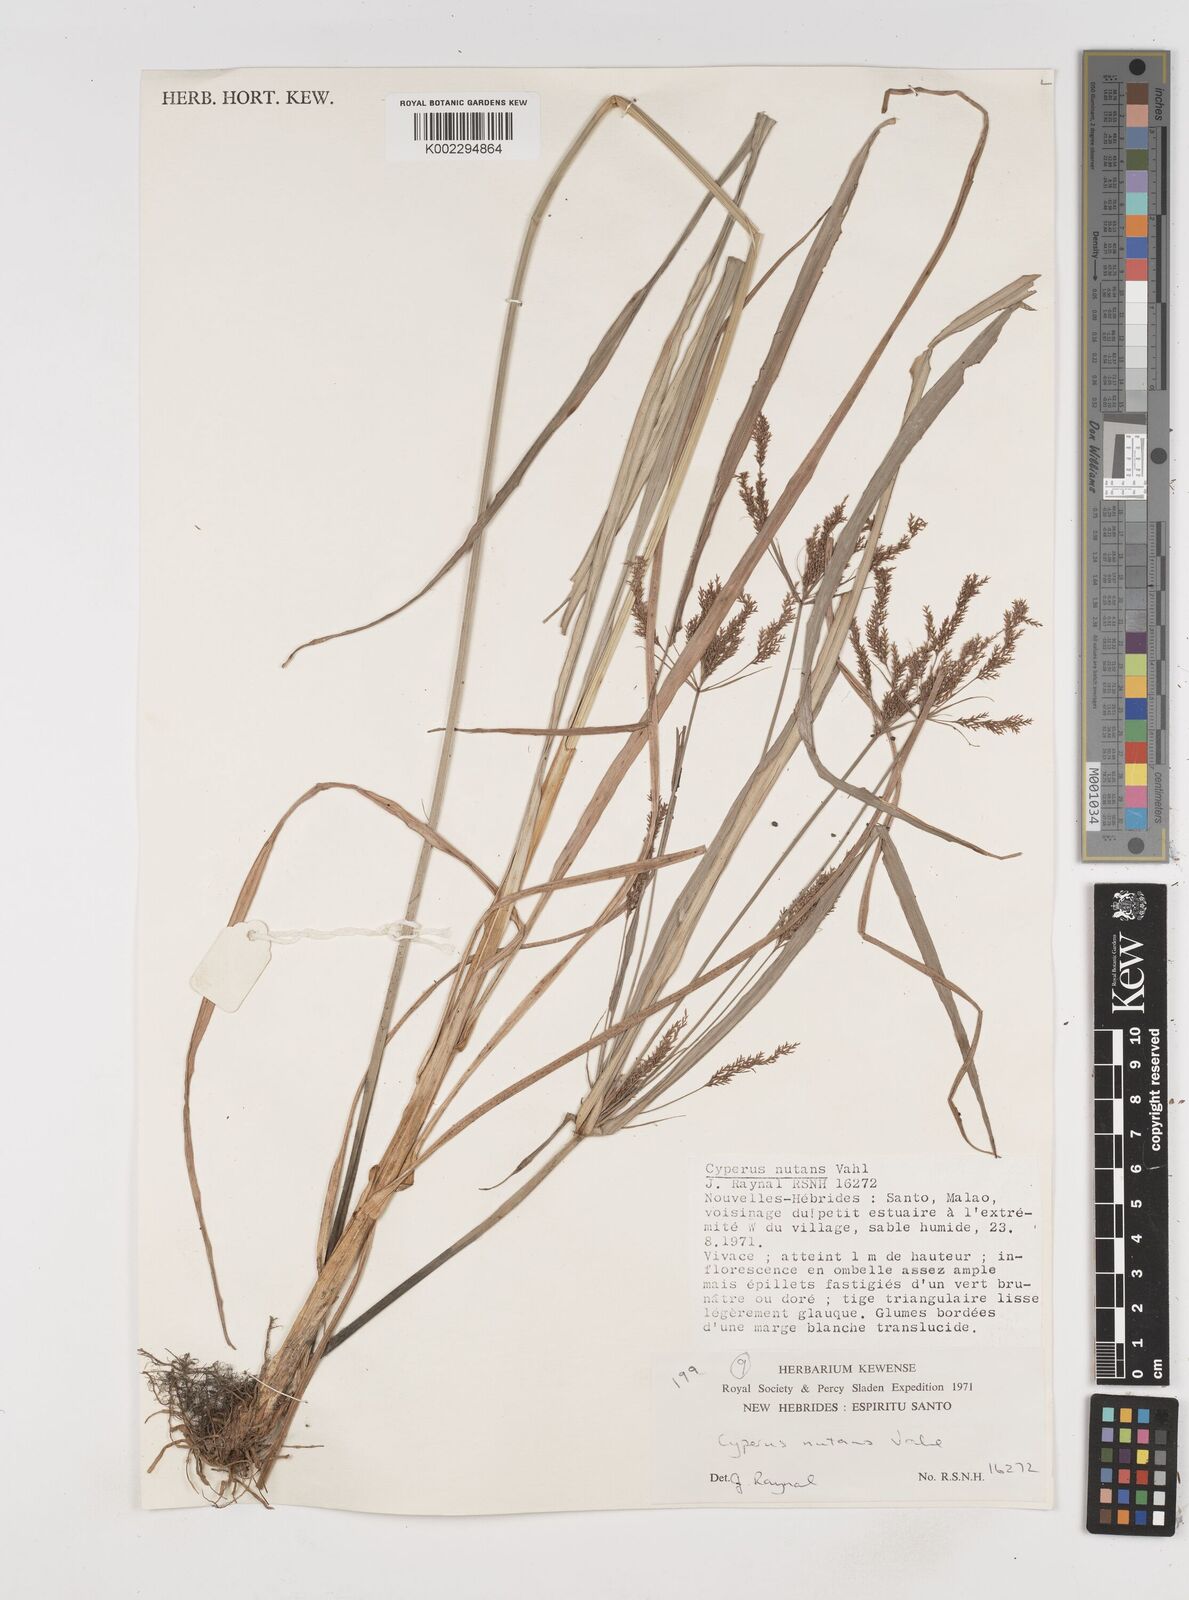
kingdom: Plantae
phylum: Tracheophyta
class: Liliopsida
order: Poales
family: Cyperaceae
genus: Cyperus
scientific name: Cyperus nutans
